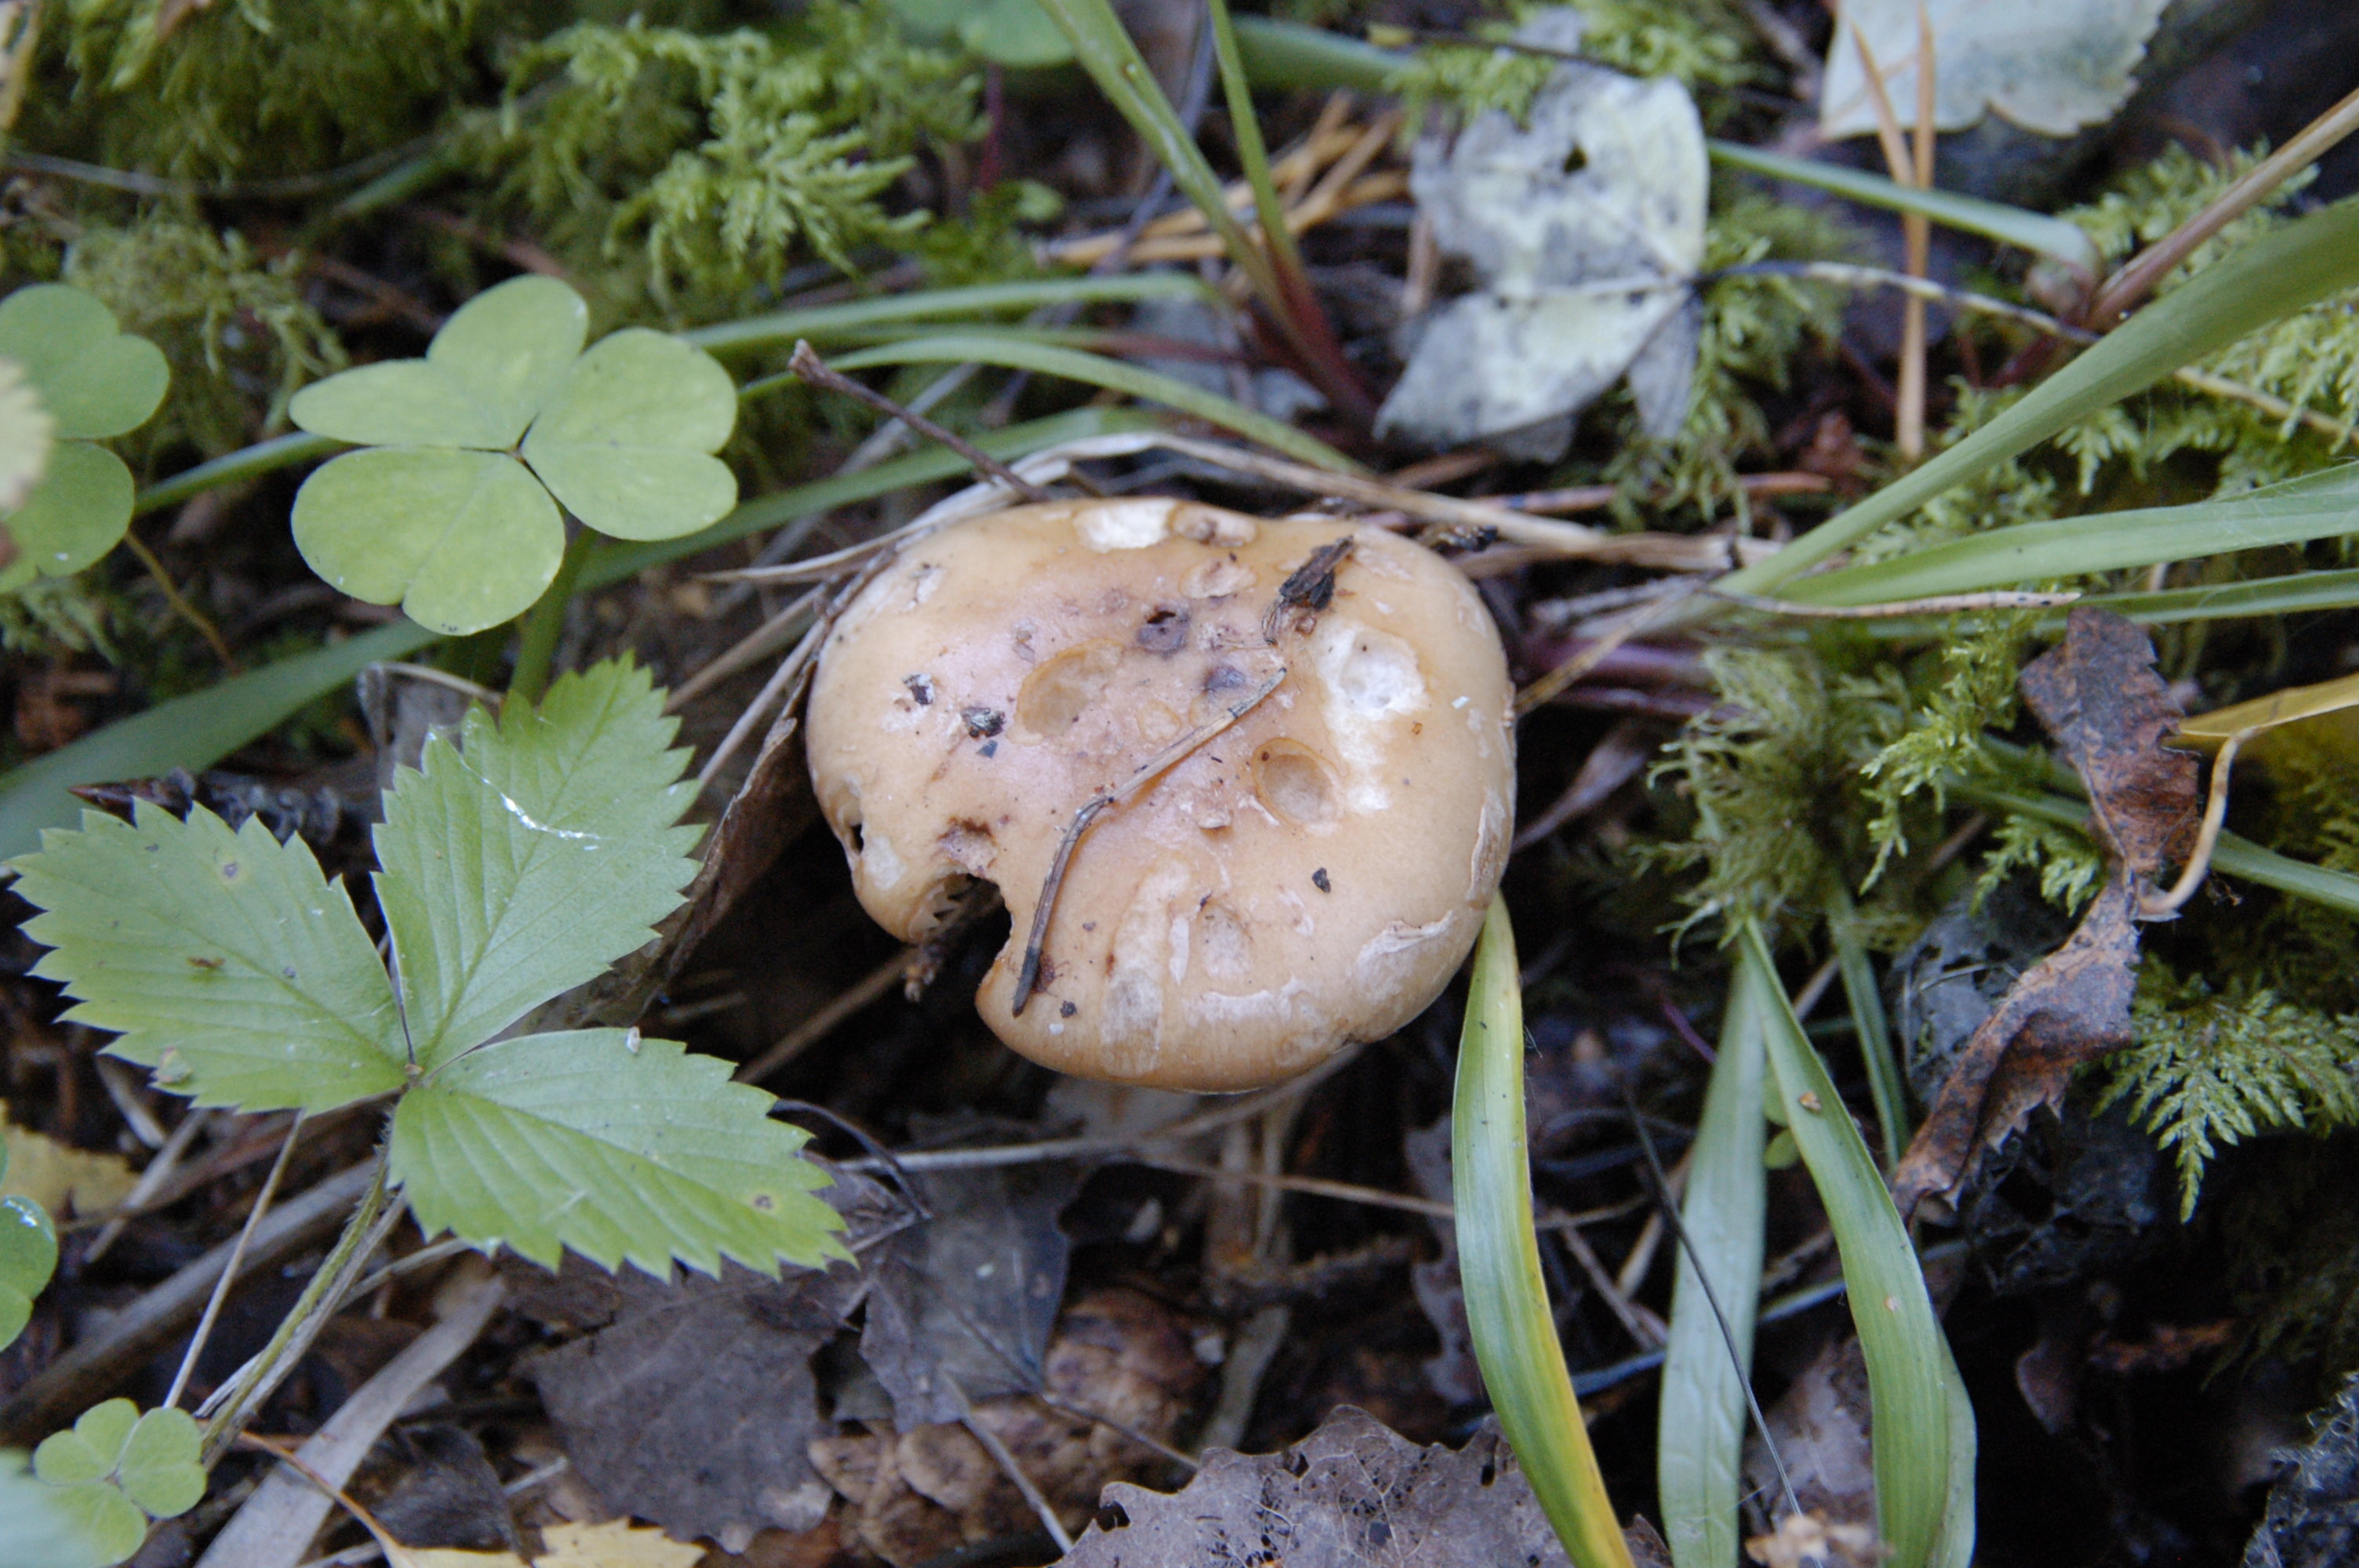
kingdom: Fungi
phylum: Basidiomycota
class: Agaricomycetes
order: Agaricales
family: Tricholomataceae
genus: Leucocortinarius
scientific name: Leucocortinarius bulbiger
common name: White webcap
